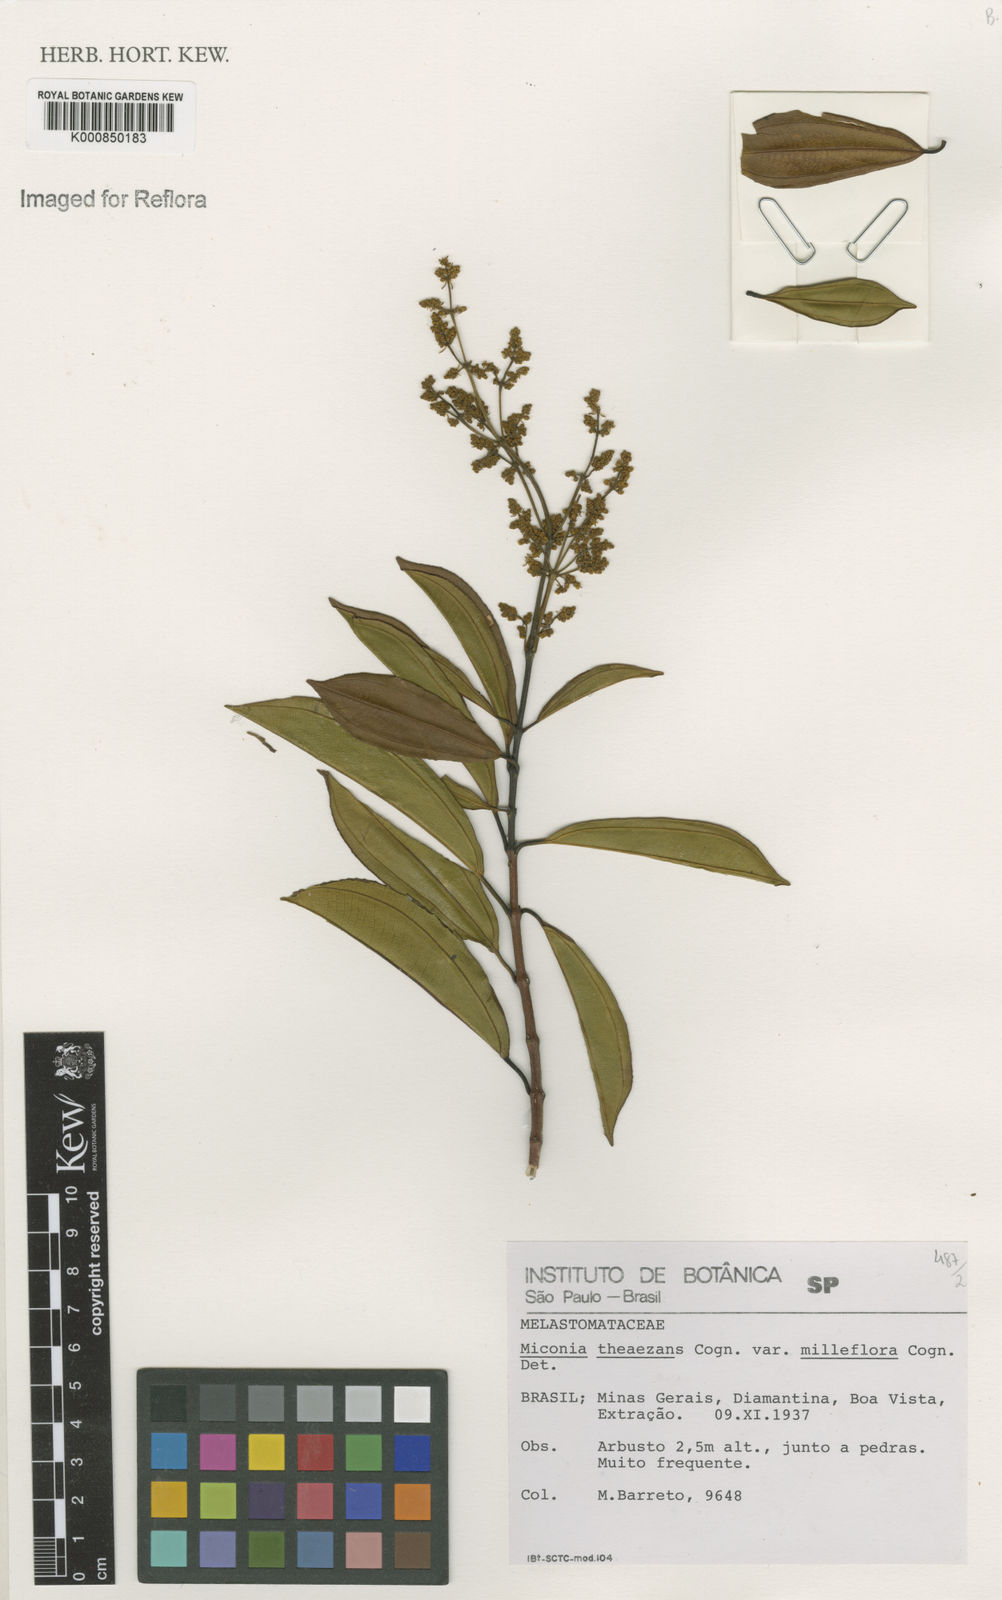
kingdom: Plantae
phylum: Tracheophyta
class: Magnoliopsida
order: Myrtales
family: Melastomataceae
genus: Miconia
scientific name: Miconia
